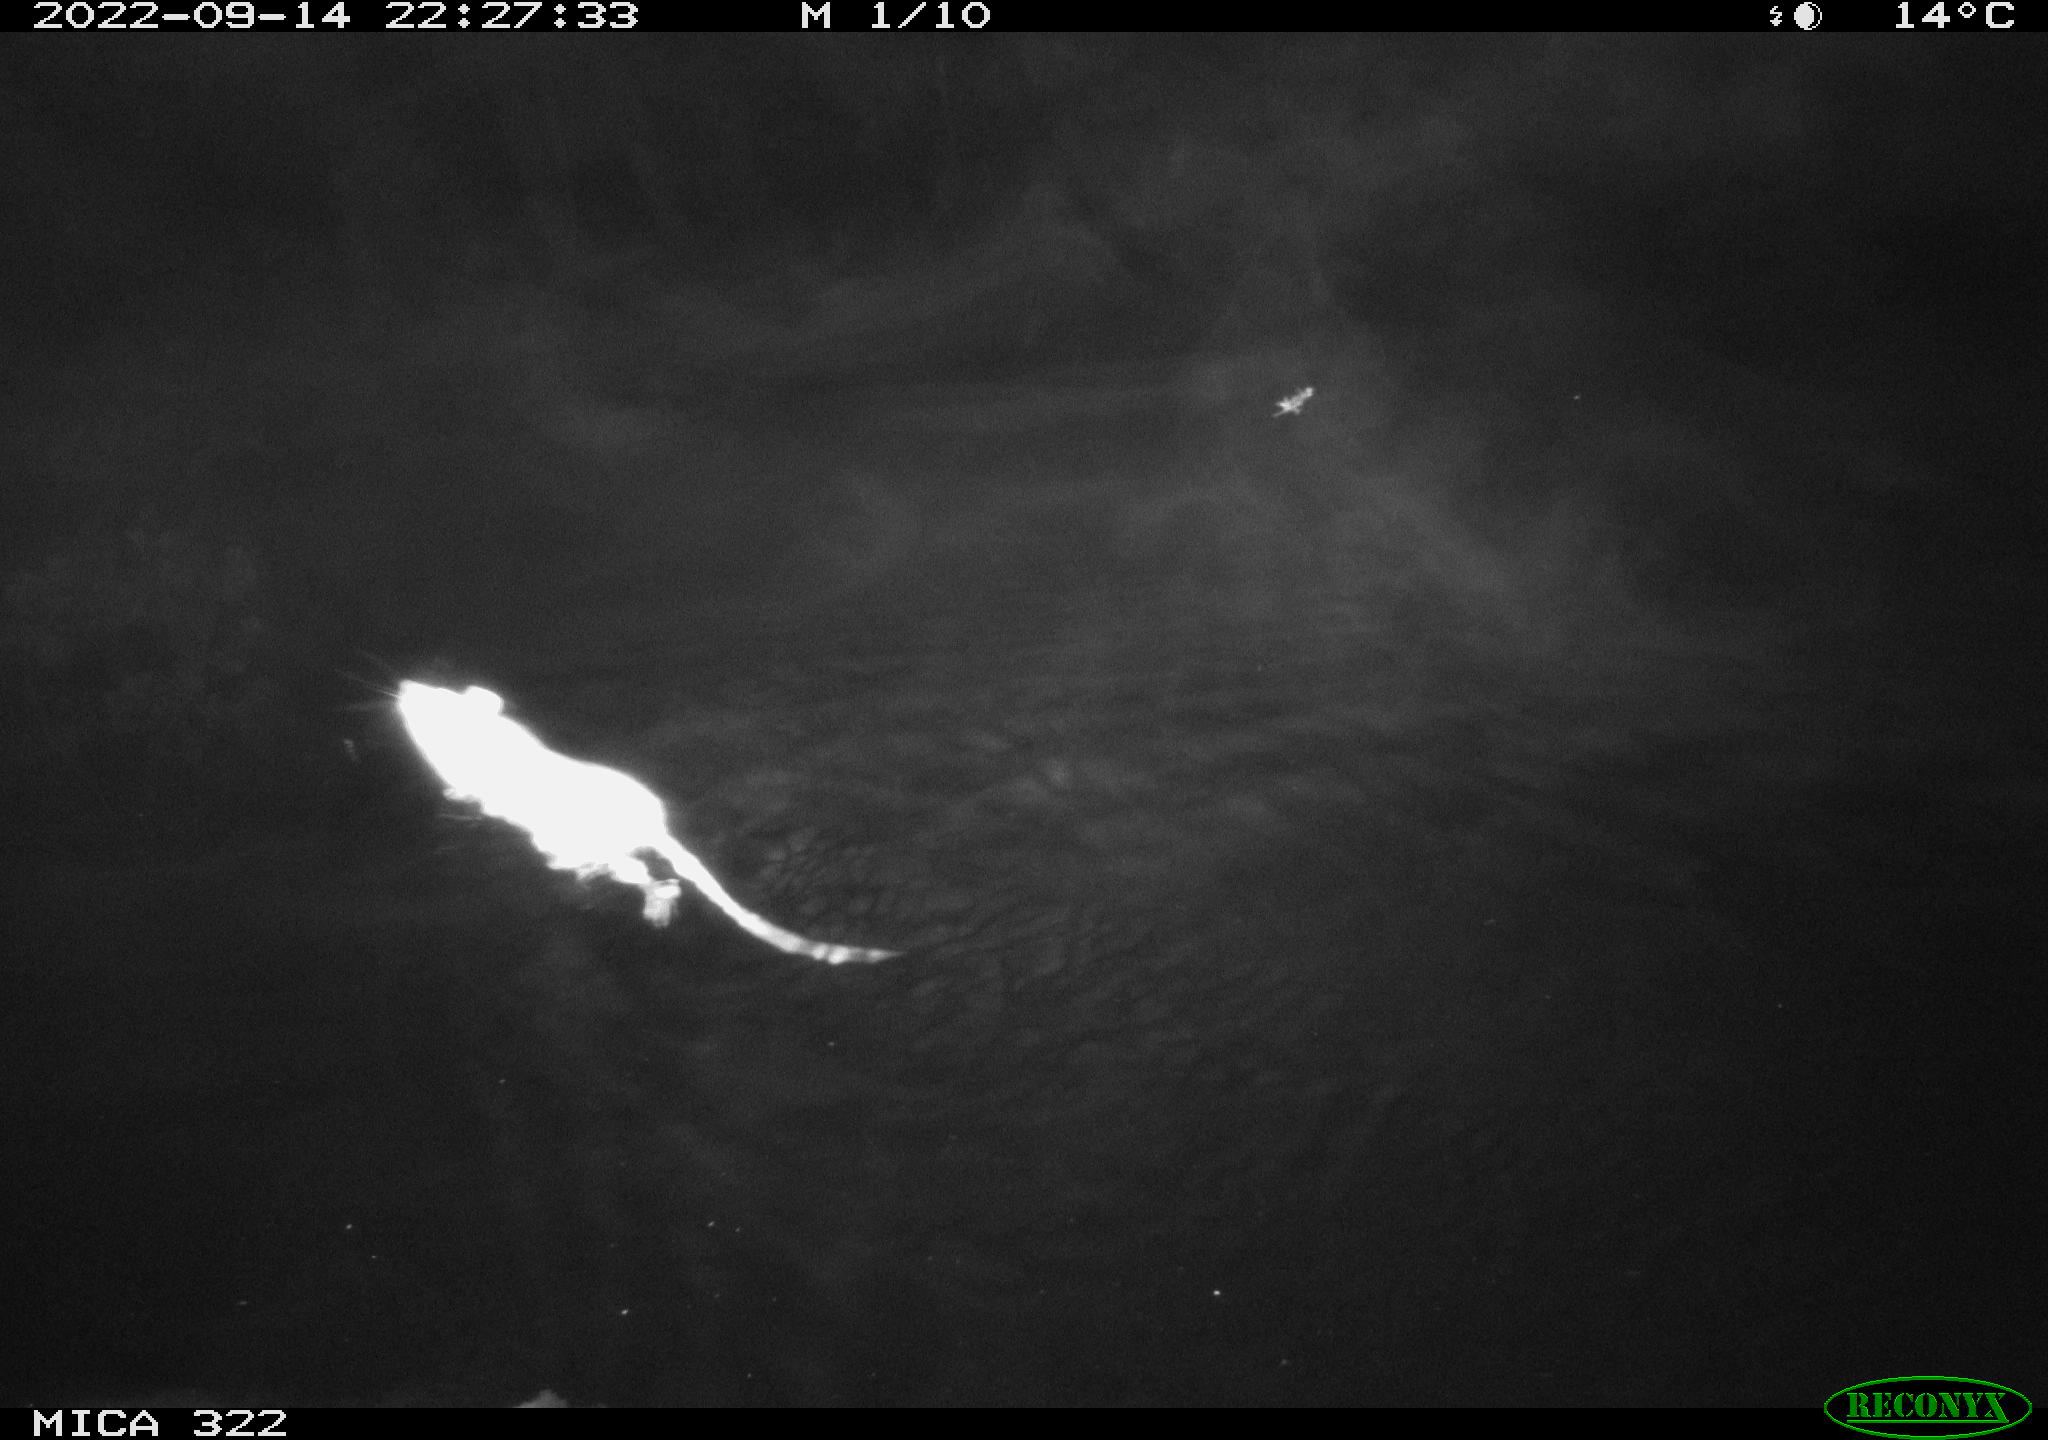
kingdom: Animalia
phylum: Chordata
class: Mammalia
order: Rodentia
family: Muridae
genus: Rattus
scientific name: Rattus norvegicus
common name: Brown rat
